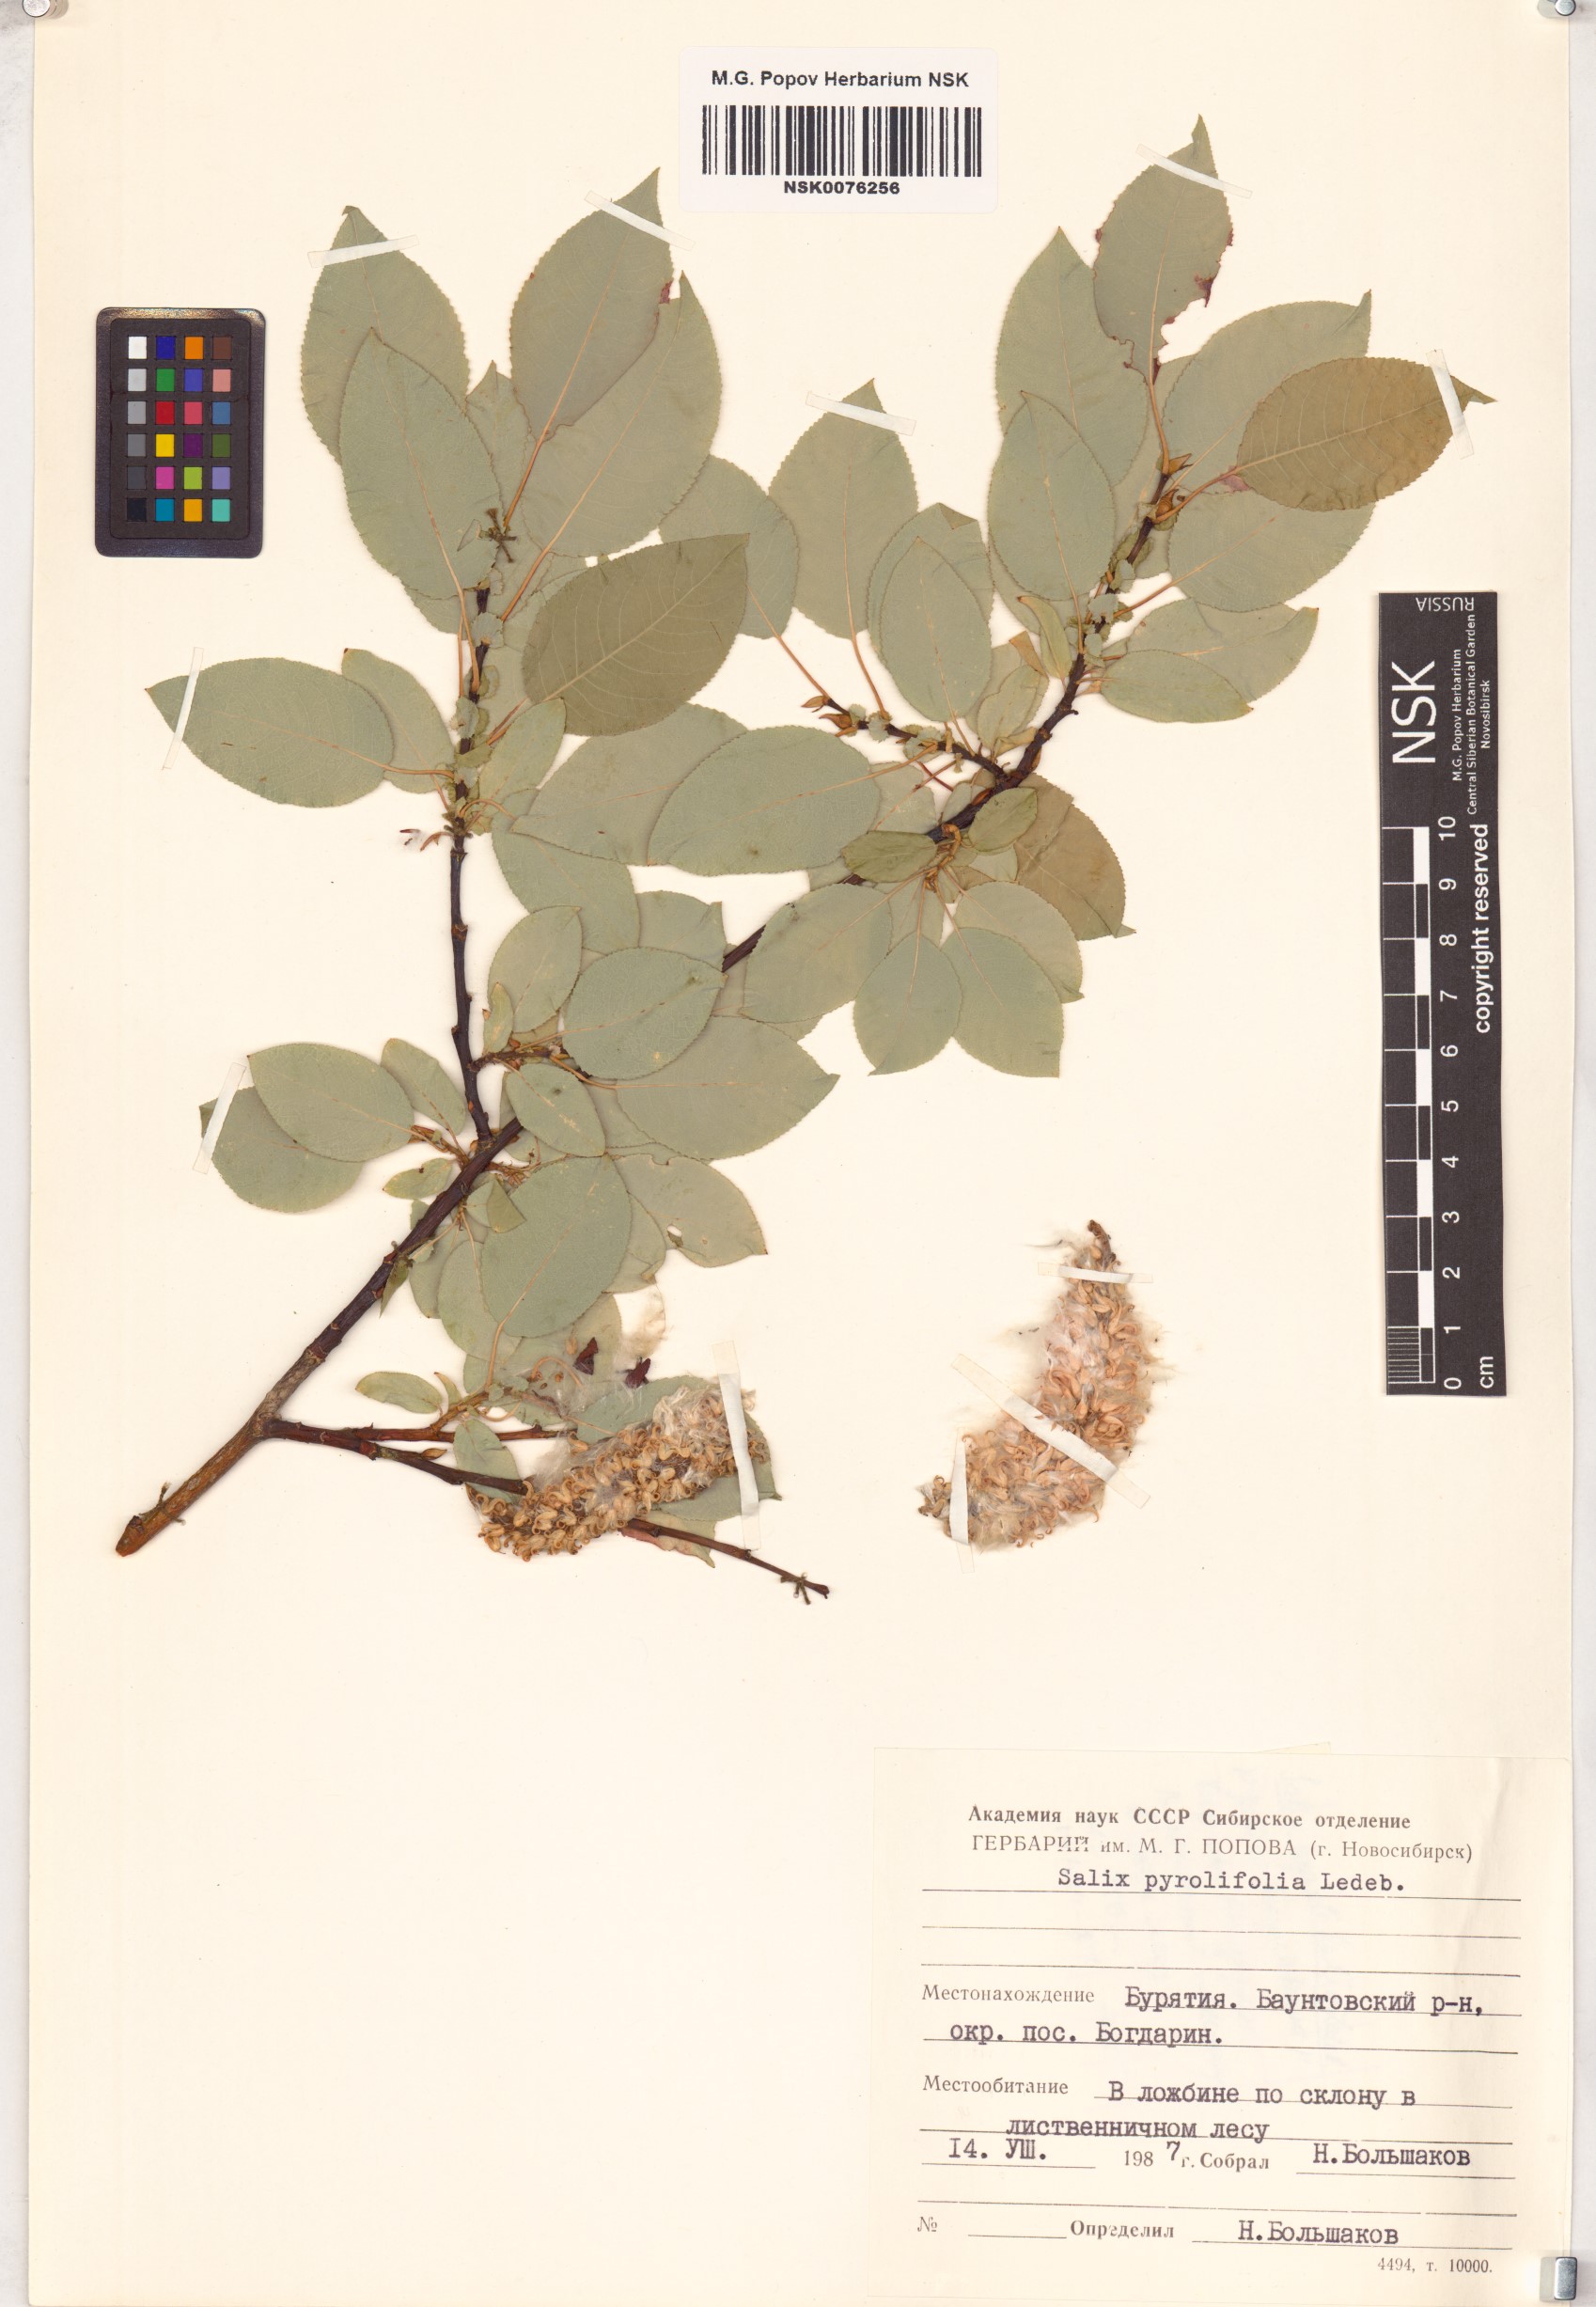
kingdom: Plantae
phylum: Tracheophyta
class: Magnoliopsida
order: Malpighiales
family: Salicaceae
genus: Salix
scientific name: Salix pyrolifolia
